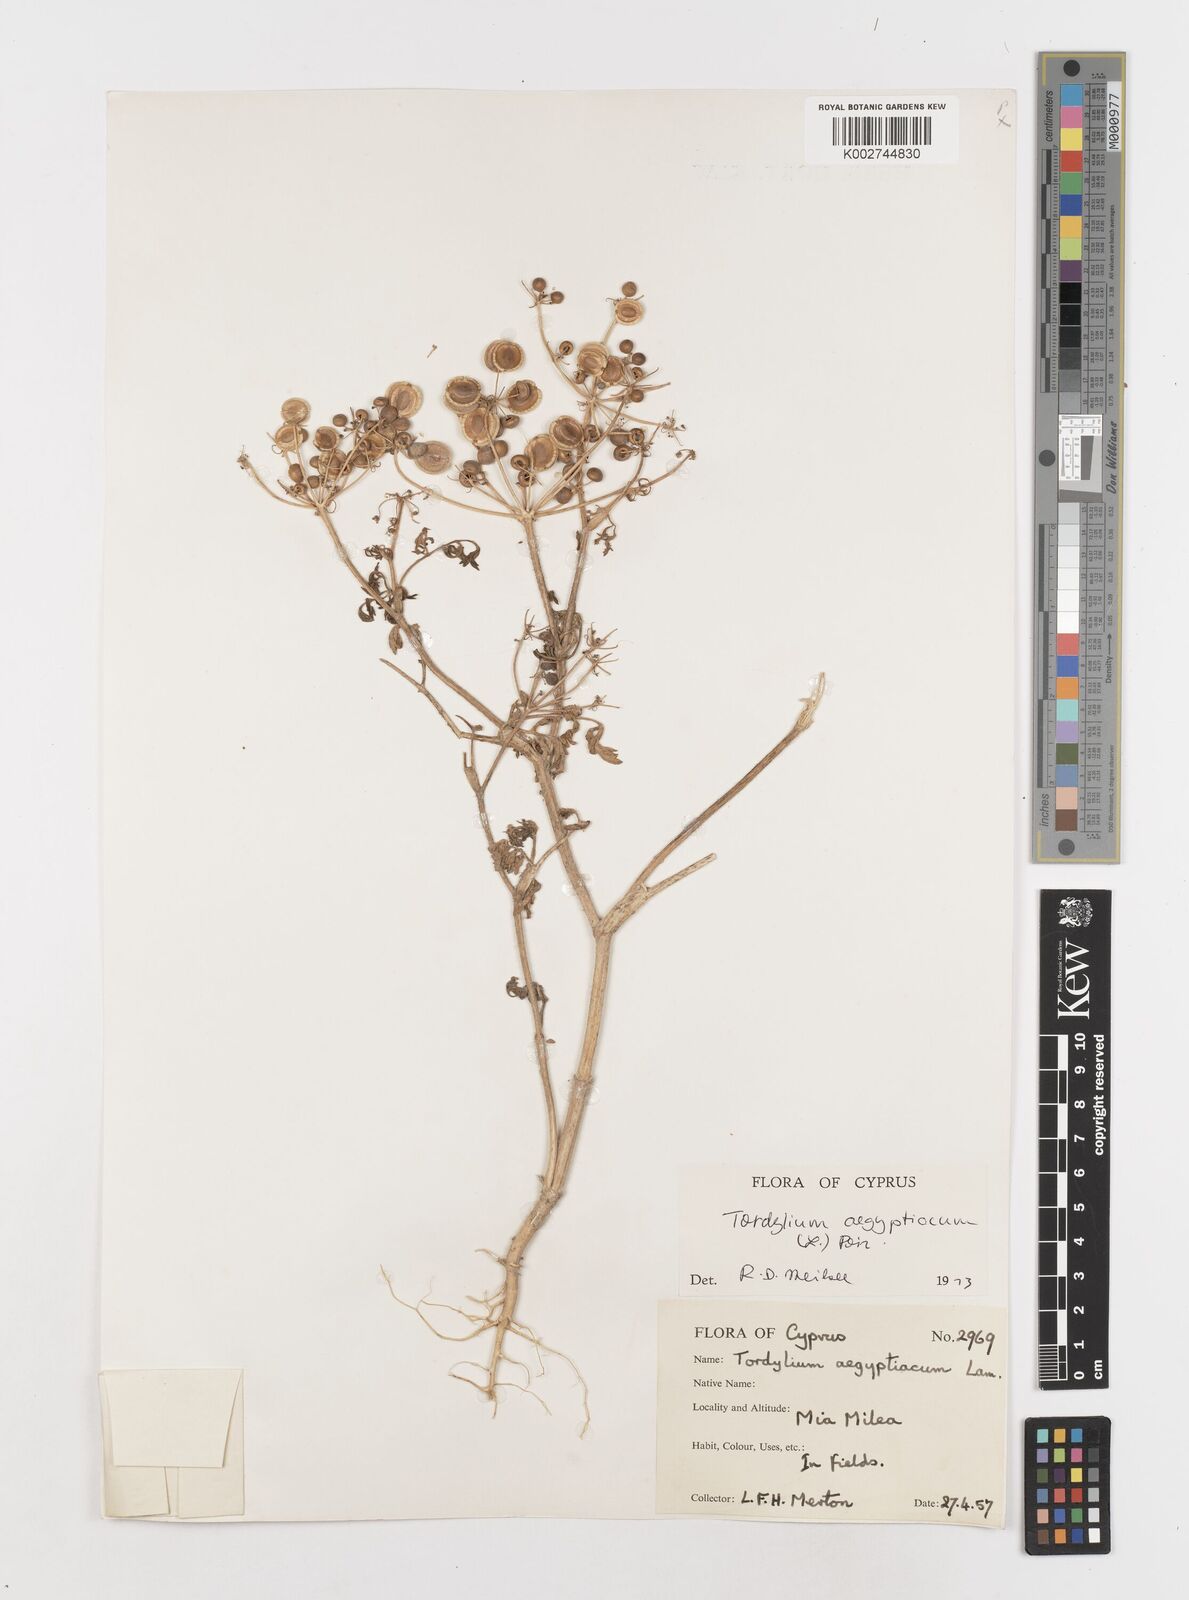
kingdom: Plantae
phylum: Tracheophyta
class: Magnoliopsida
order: Apiales
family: Apiaceae
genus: Tordylium
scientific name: Tordylium aegyptiacum
